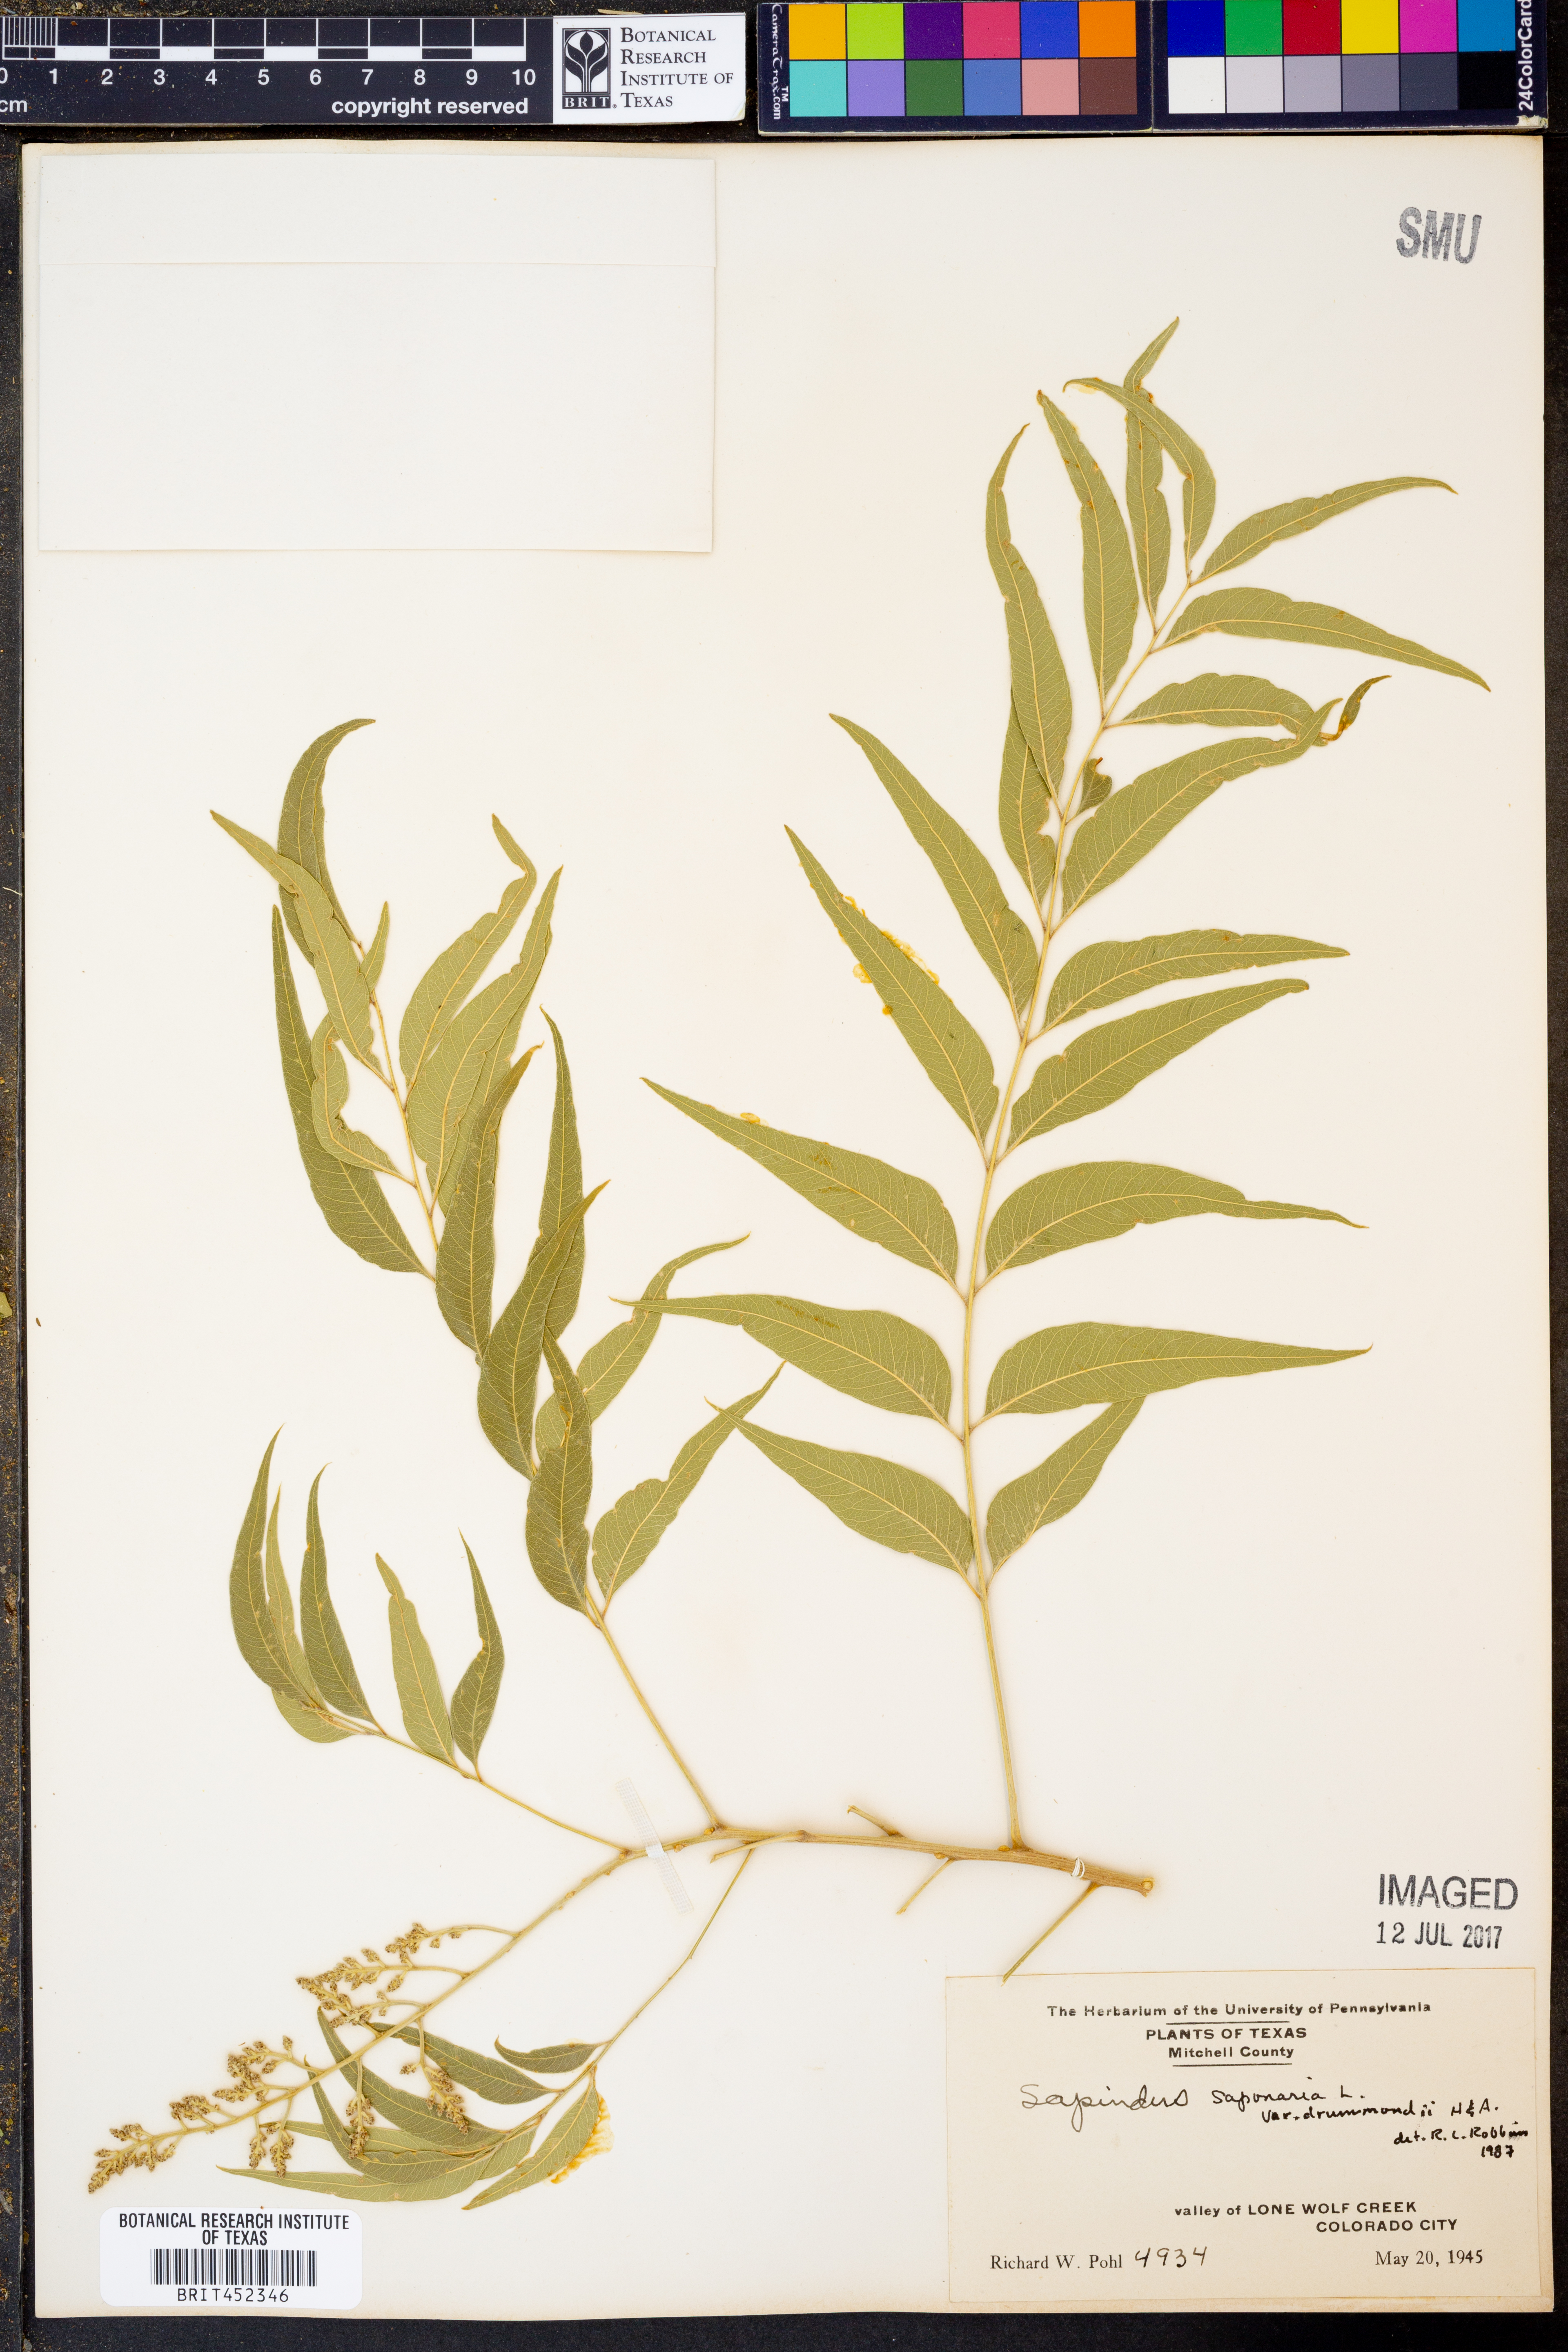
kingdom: Plantae
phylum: Tracheophyta
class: Magnoliopsida
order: Sapindales
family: Sapindaceae
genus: Sapindus
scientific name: Sapindus drummondii
